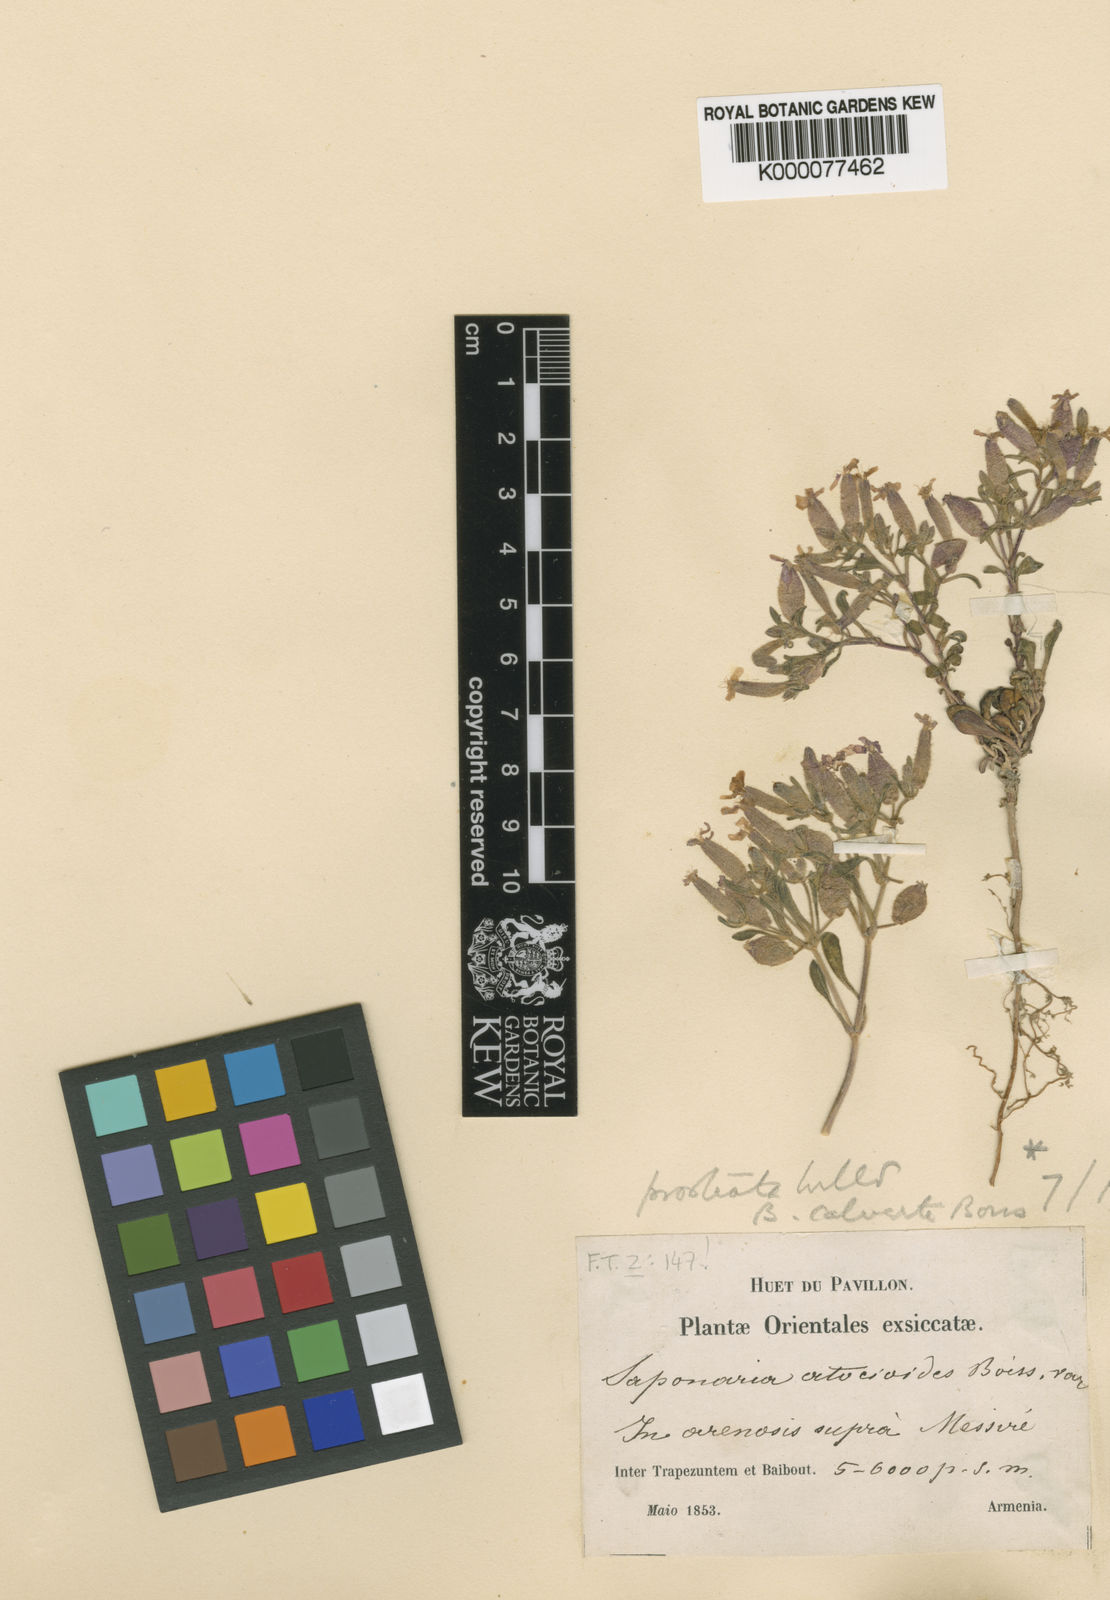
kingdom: Plantae
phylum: Tracheophyta
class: Magnoliopsida
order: Caryophyllales
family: Caryophyllaceae
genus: Saponaria
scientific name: Saponaria prostrata
